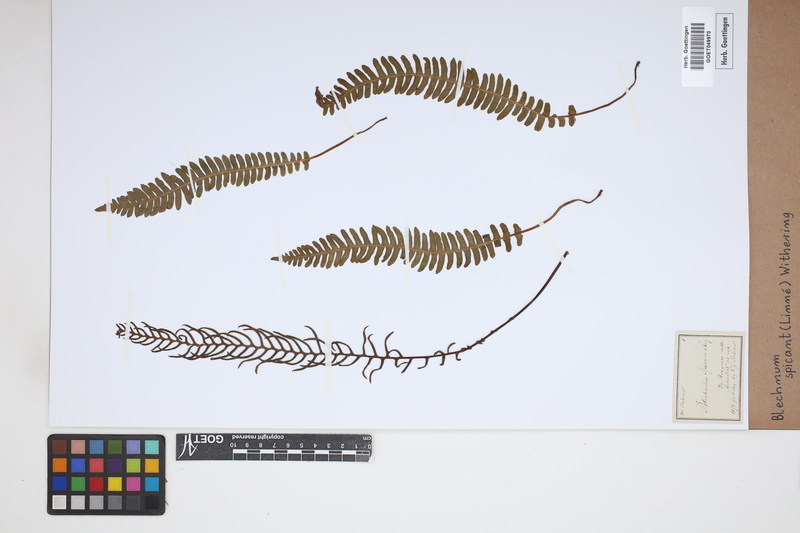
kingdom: Plantae
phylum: Tracheophyta
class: Polypodiopsida
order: Polypodiales
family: Blechnaceae
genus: Struthiopteris
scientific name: Struthiopteris spicant
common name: Deer fern
